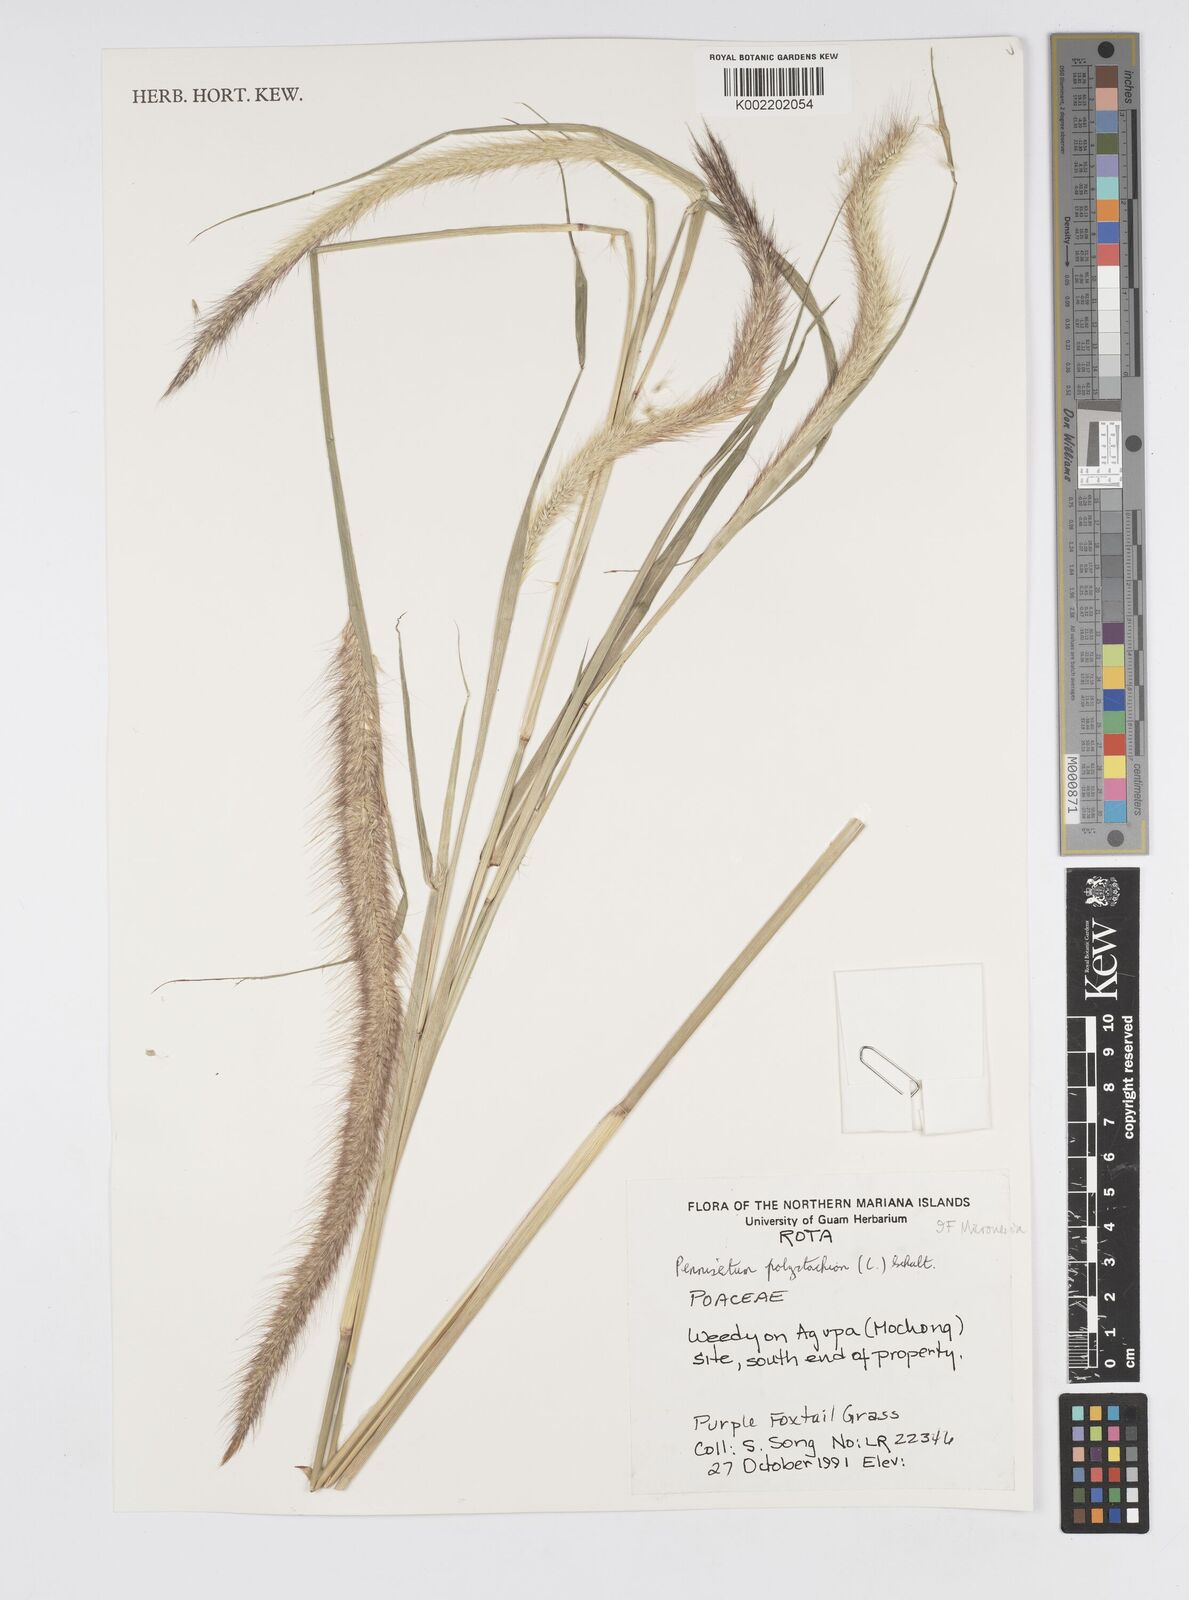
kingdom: Plantae
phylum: Tracheophyta
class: Liliopsida
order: Poales
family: Poaceae
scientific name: Poaceae
